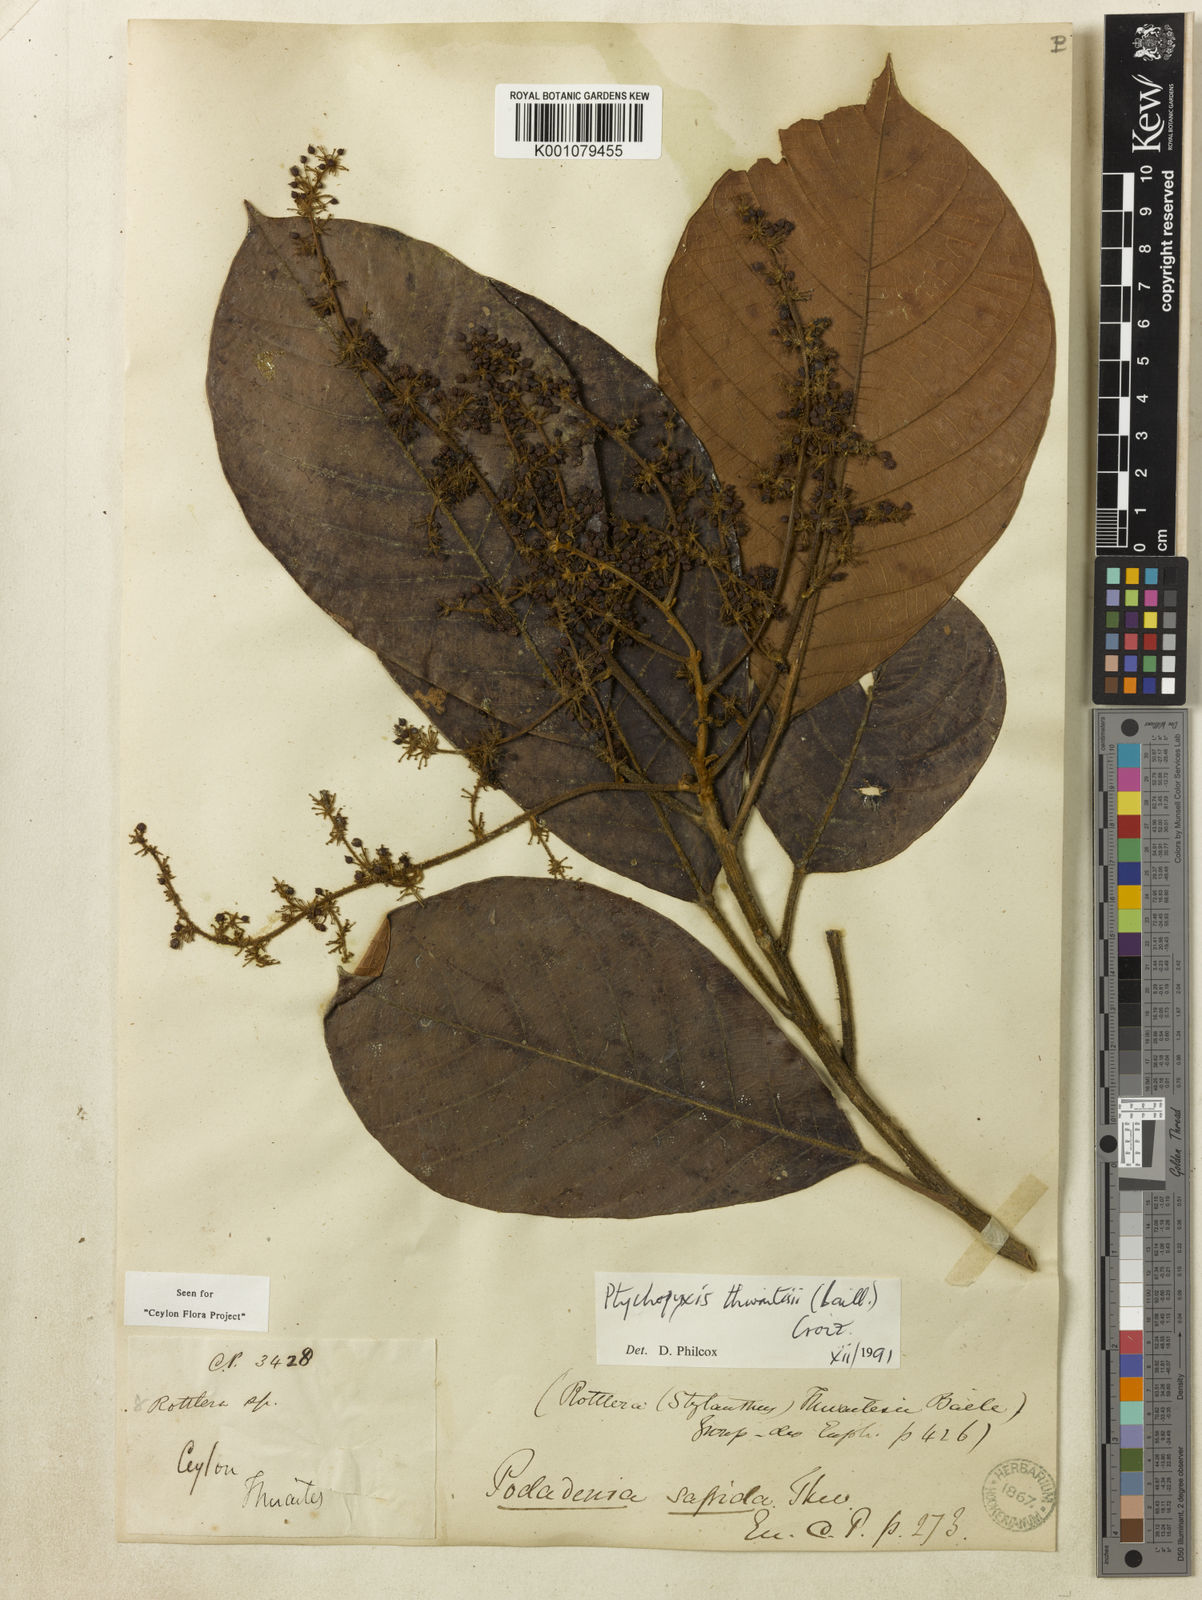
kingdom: Plantae
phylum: Tracheophyta
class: Magnoliopsida
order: Malpighiales
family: Euphorbiaceae
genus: Podadenia
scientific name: Podadenia sapida
